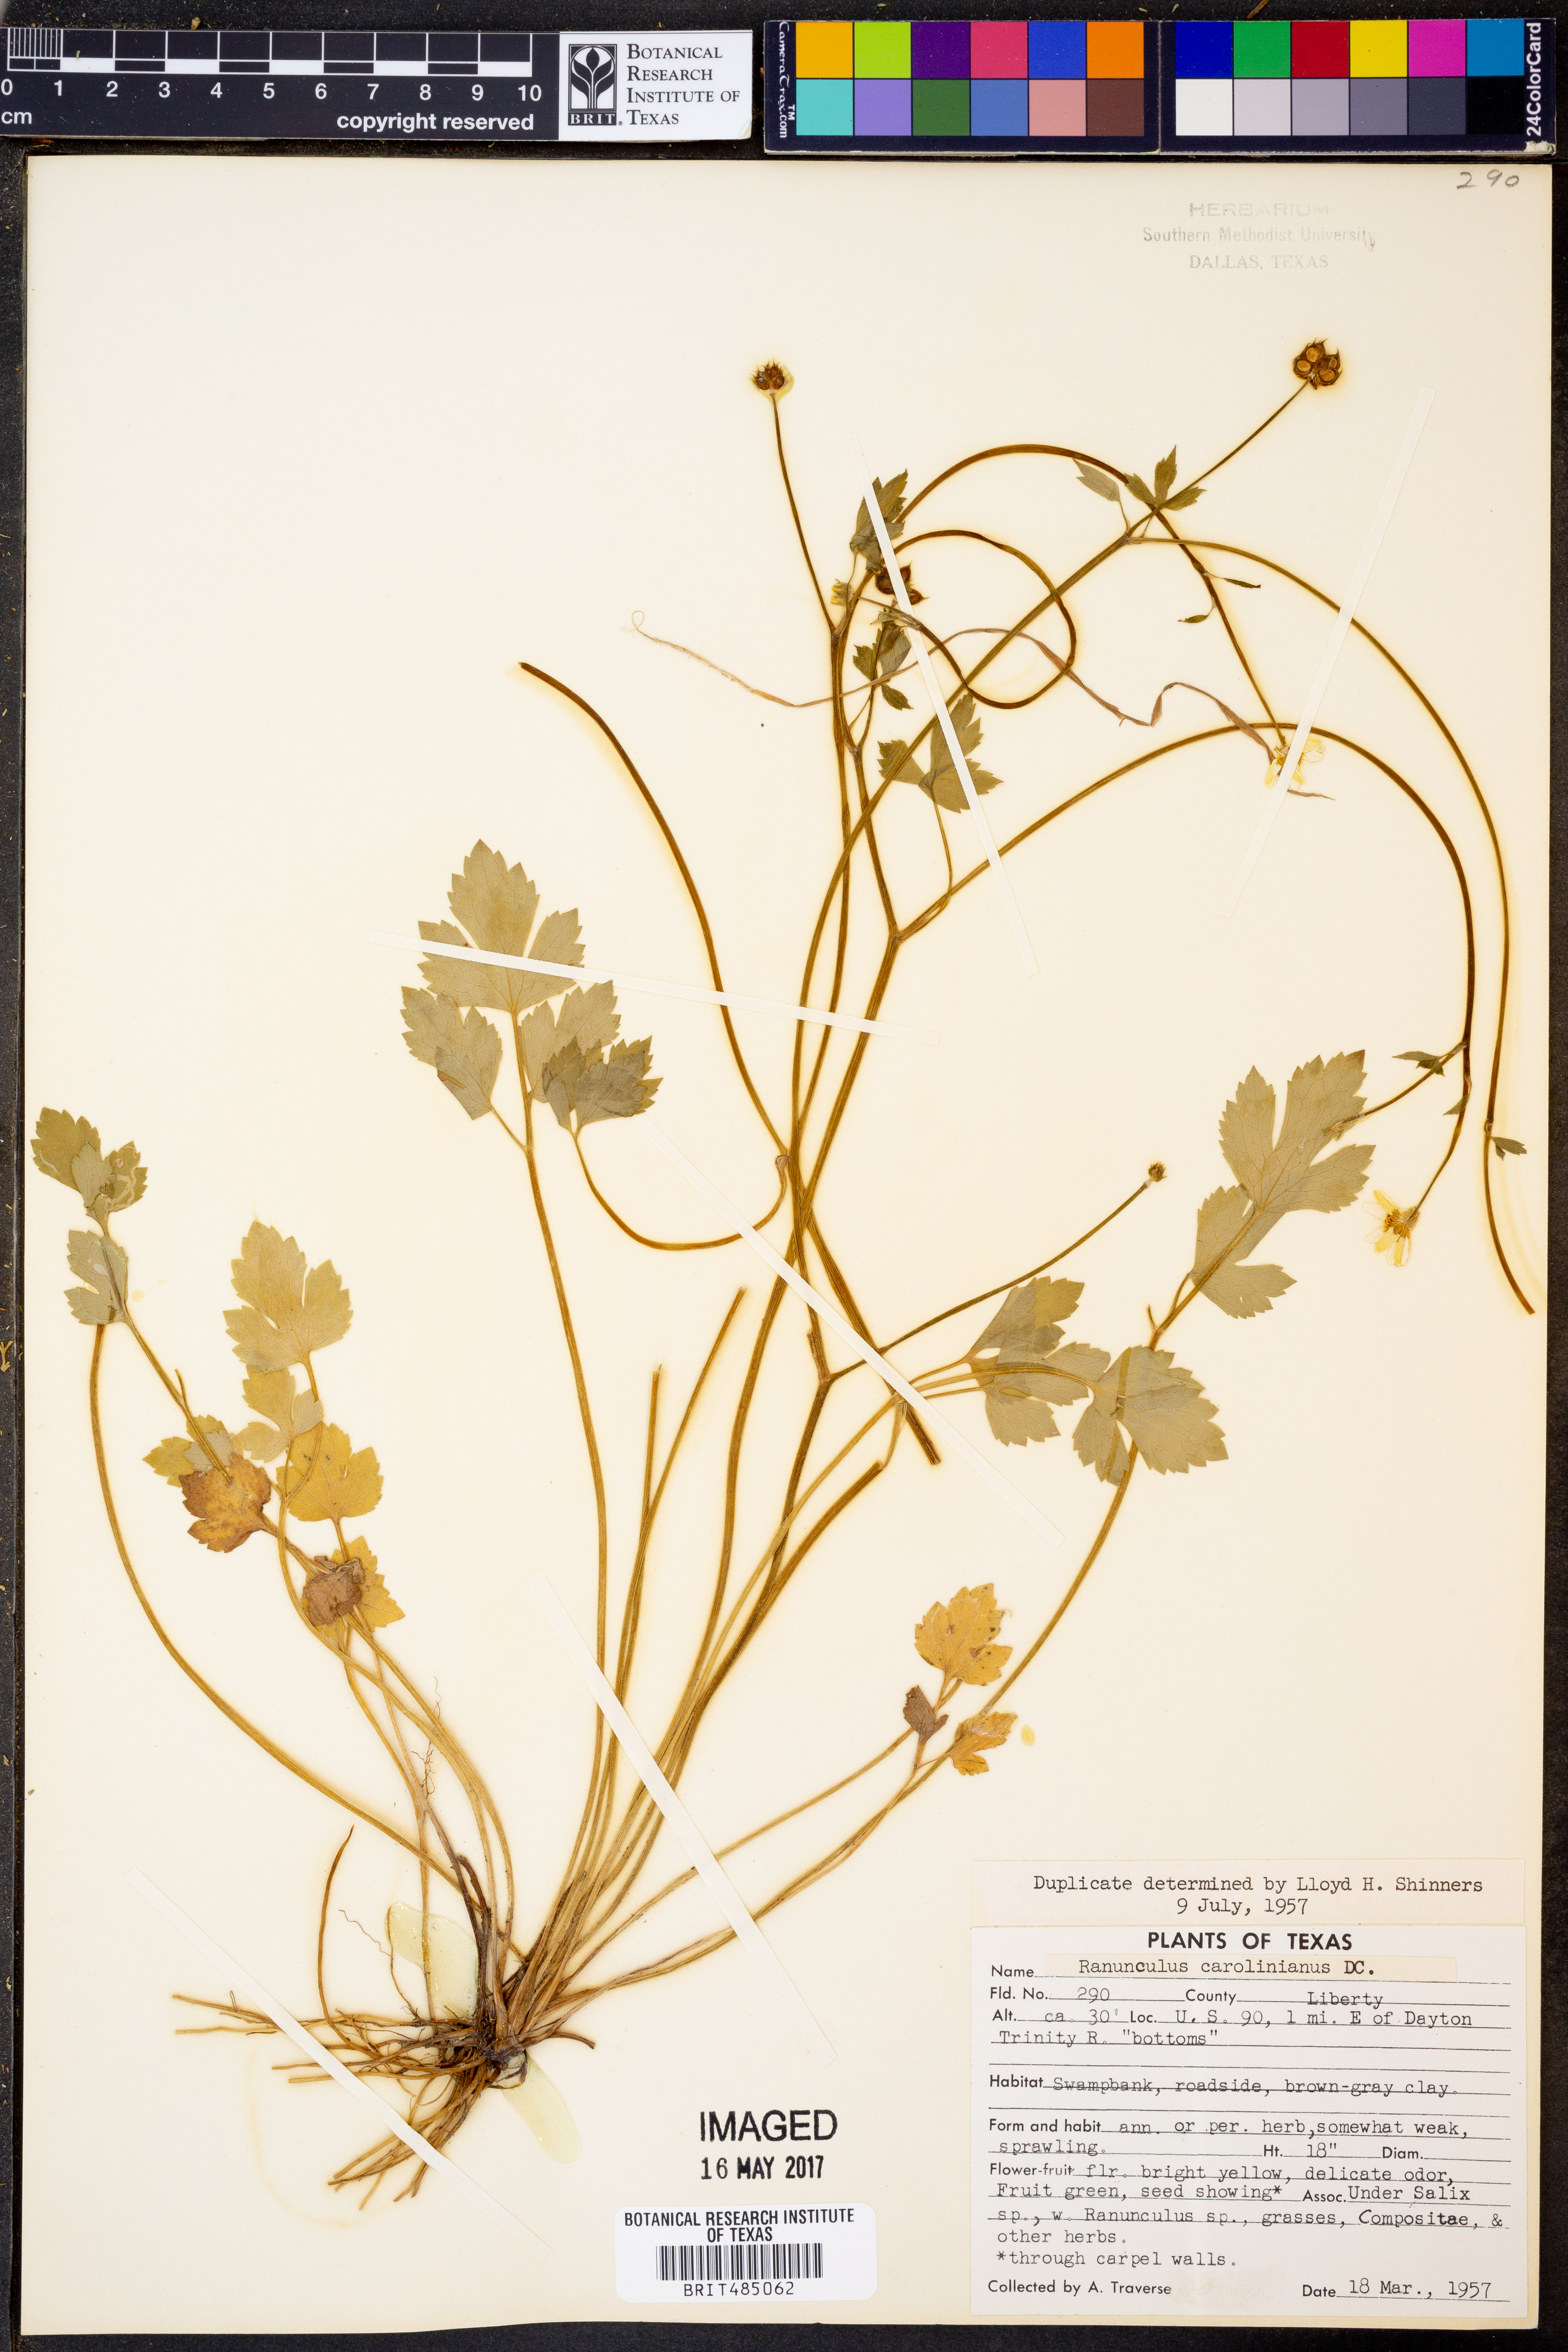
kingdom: Plantae
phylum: Tracheophyta
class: Magnoliopsida
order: Ranunculales
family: Ranunculaceae
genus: Ranunculus
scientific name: Ranunculus hispidus
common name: Bristly buttercup
